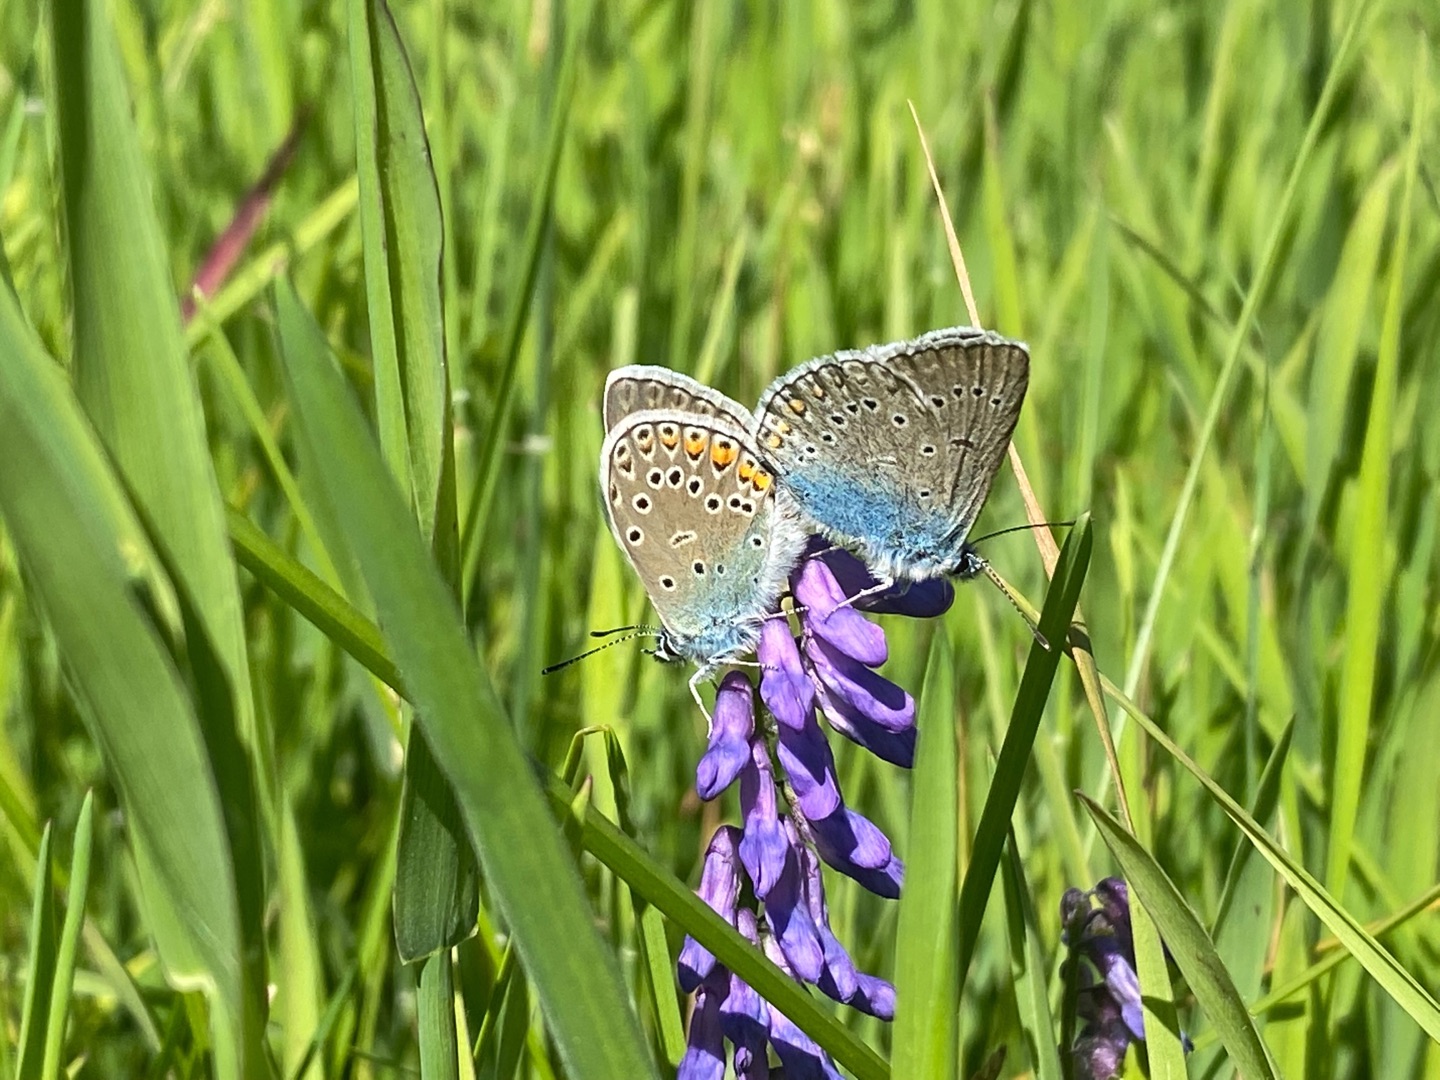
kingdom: Animalia
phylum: Arthropoda
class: Insecta
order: Lepidoptera
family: Lycaenidae
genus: Plebejus
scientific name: Plebejus amanda
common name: Isblåfugl
